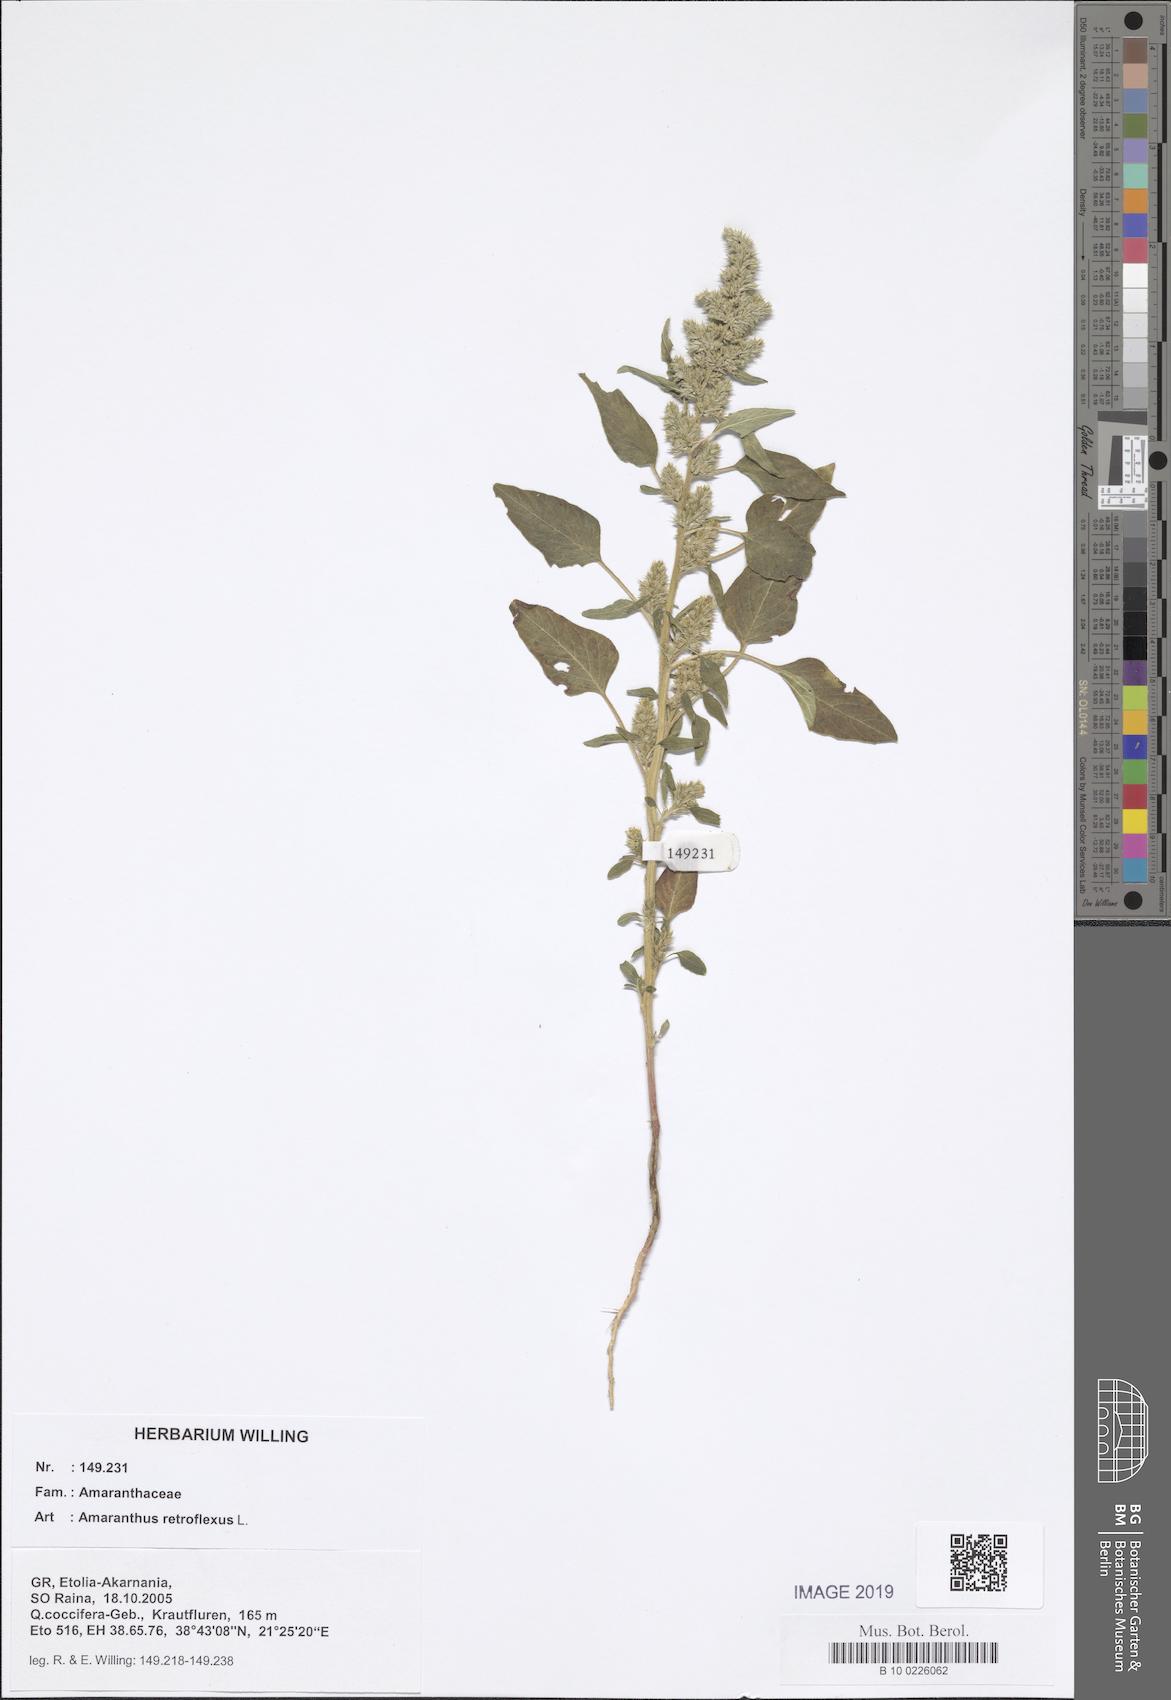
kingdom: Plantae
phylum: Tracheophyta
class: Magnoliopsida
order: Caryophyllales
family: Amaranthaceae
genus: Amaranthus
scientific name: Amaranthus retroflexus
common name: Redroot amaranth
